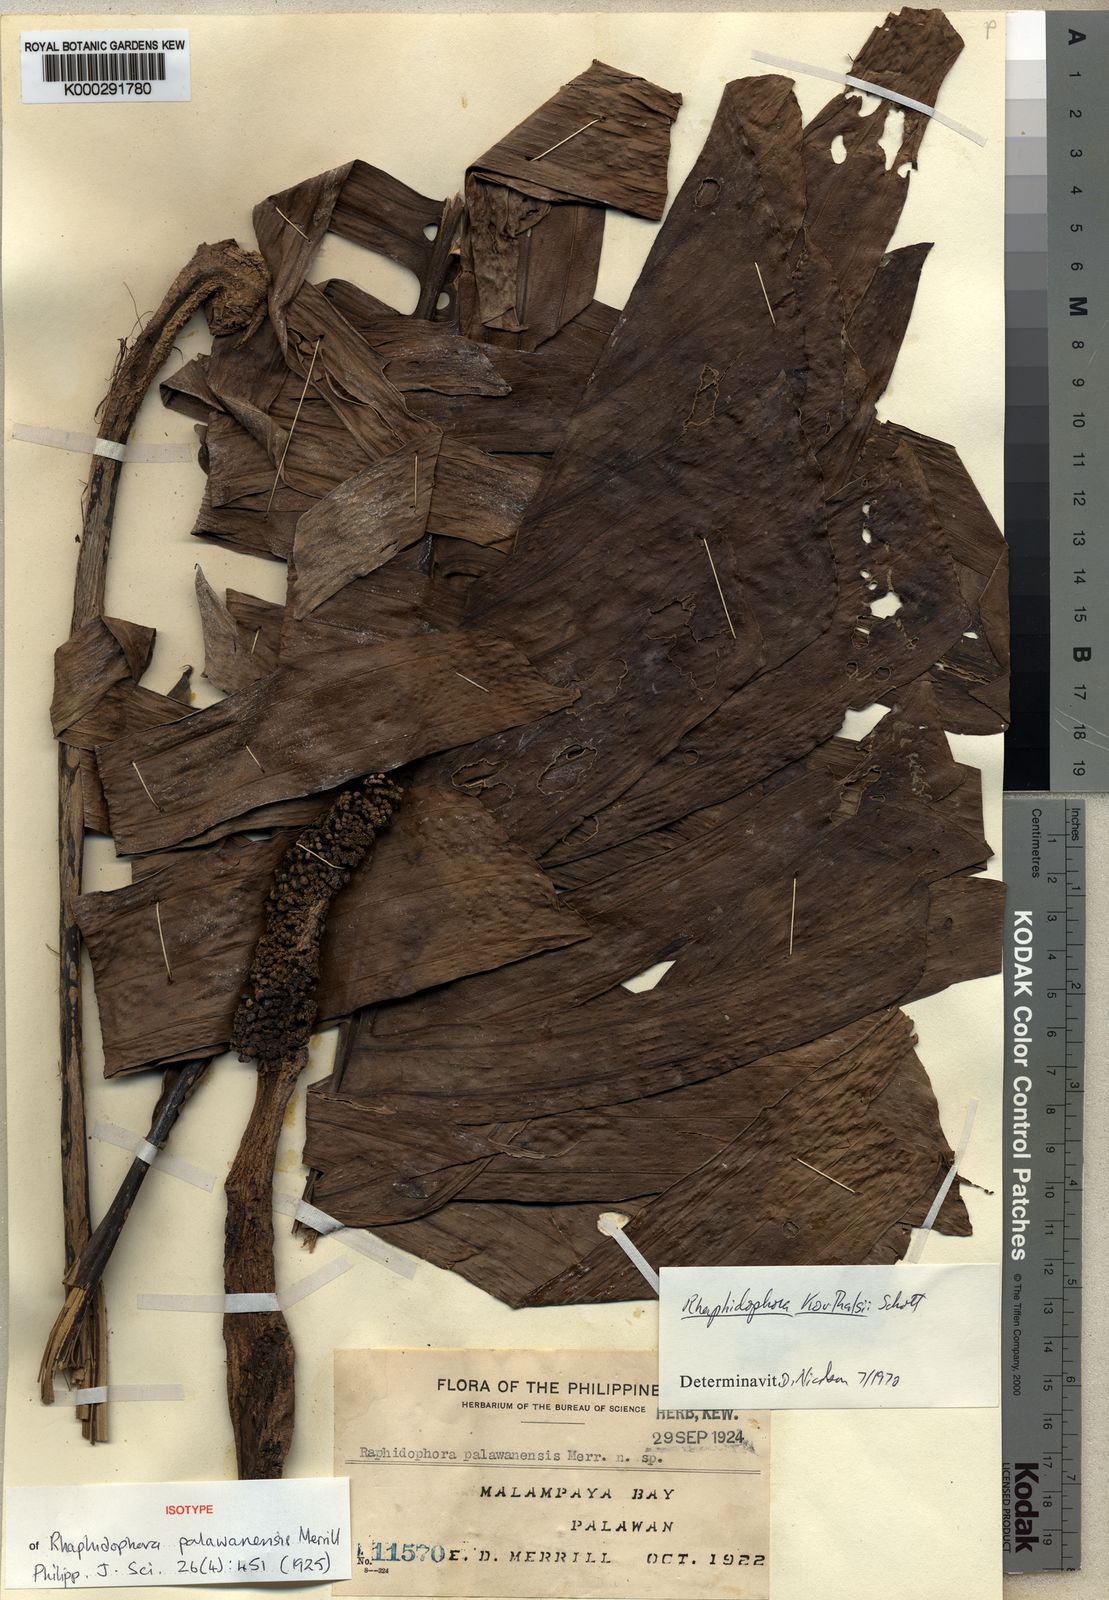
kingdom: Plantae
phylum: Tracheophyta
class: Liliopsida
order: Alismatales
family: Araceae
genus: Rhaphidophora
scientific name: Rhaphidophora korthalsii
